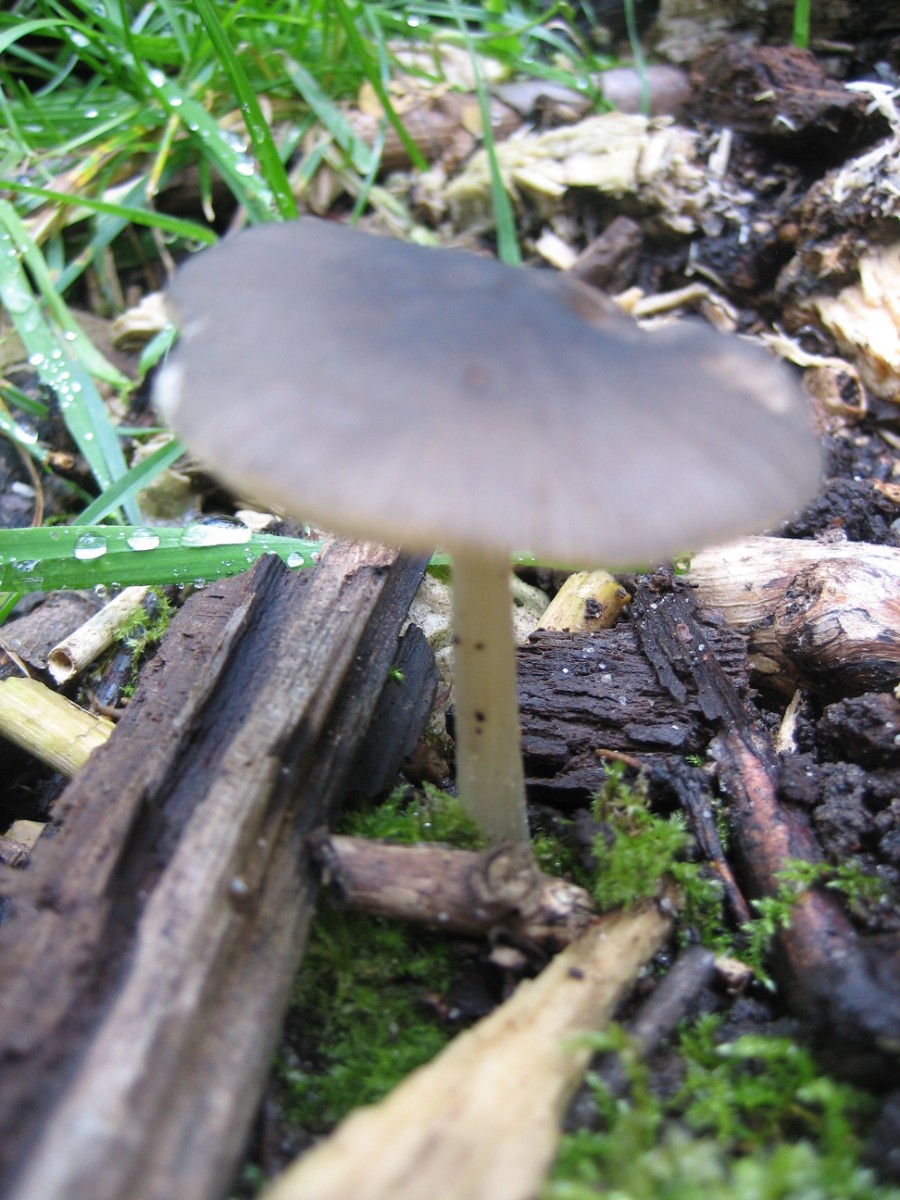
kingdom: Fungi
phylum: Basidiomycota
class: Agaricomycetes
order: Agaricales
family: Pluteaceae
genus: Pluteus
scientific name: Pluteus
